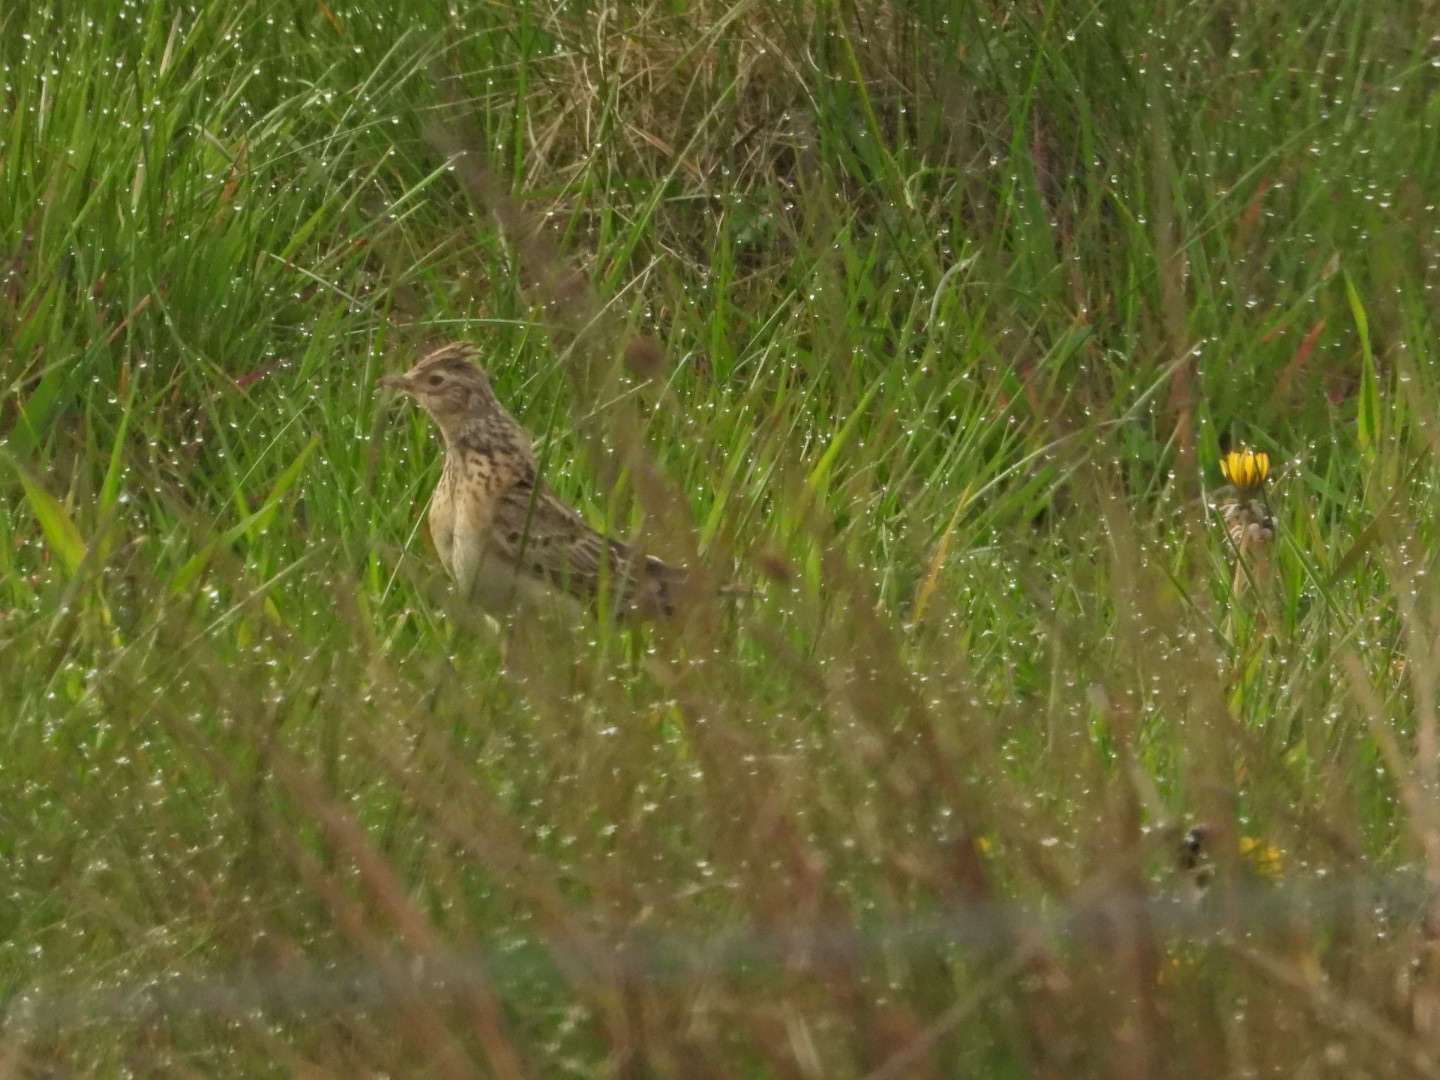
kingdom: Animalia
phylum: Chordata
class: Aves
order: Passeriformes
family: Alaudidae
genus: Alauda
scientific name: Alauda arvensis
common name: Sanglærke
